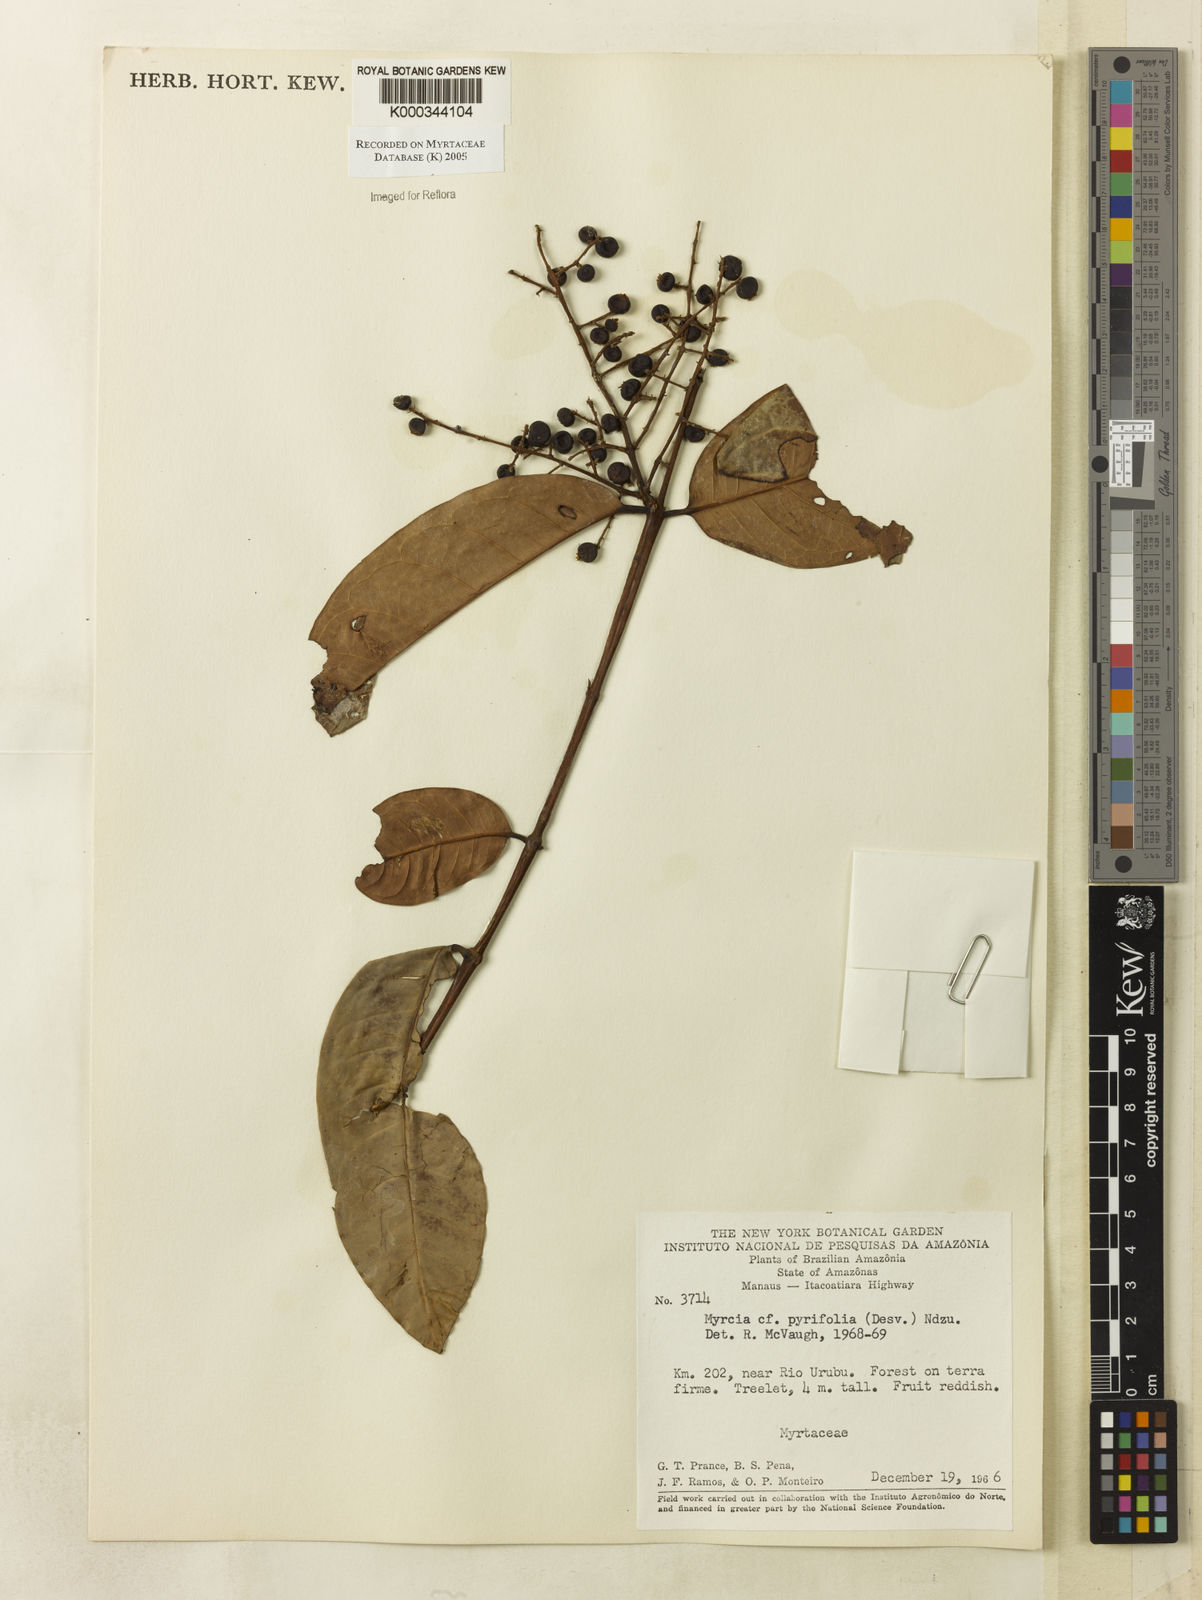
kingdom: Plantae
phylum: Tracheophyta
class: Magnoliopsida
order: Myrtales
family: Myrtaceae
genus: Myrcia
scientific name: Myrcia pyrifolia
